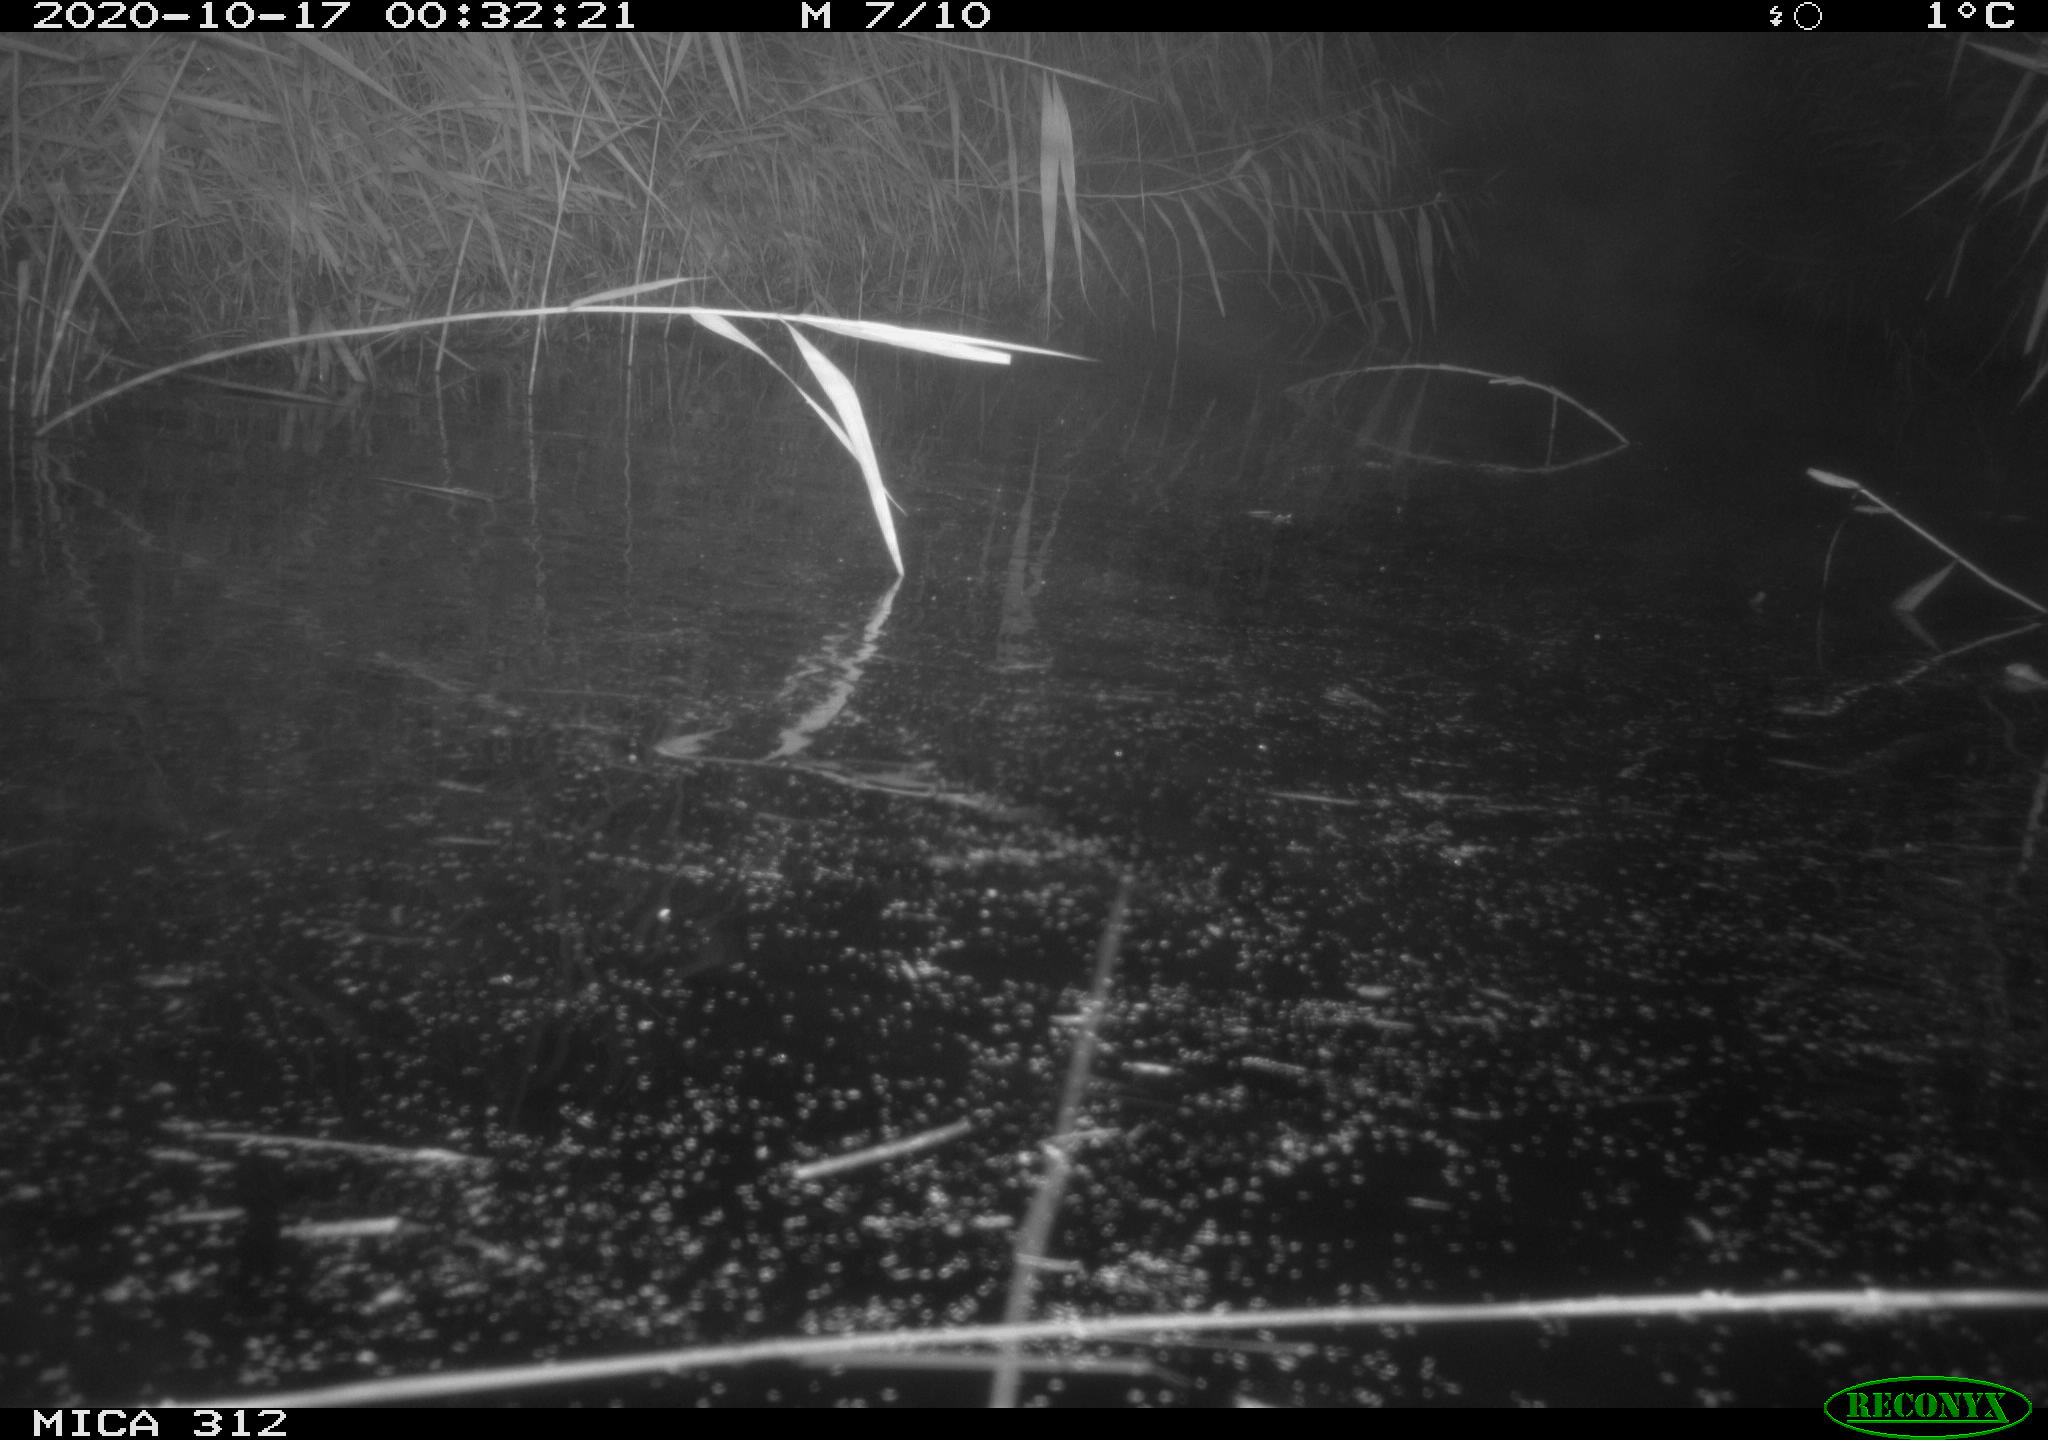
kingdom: Animalia
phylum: Chordata
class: Mammalia
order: Rodentia
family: Muridae
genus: Rattus
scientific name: Rattus norvegicus
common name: Brown rat
